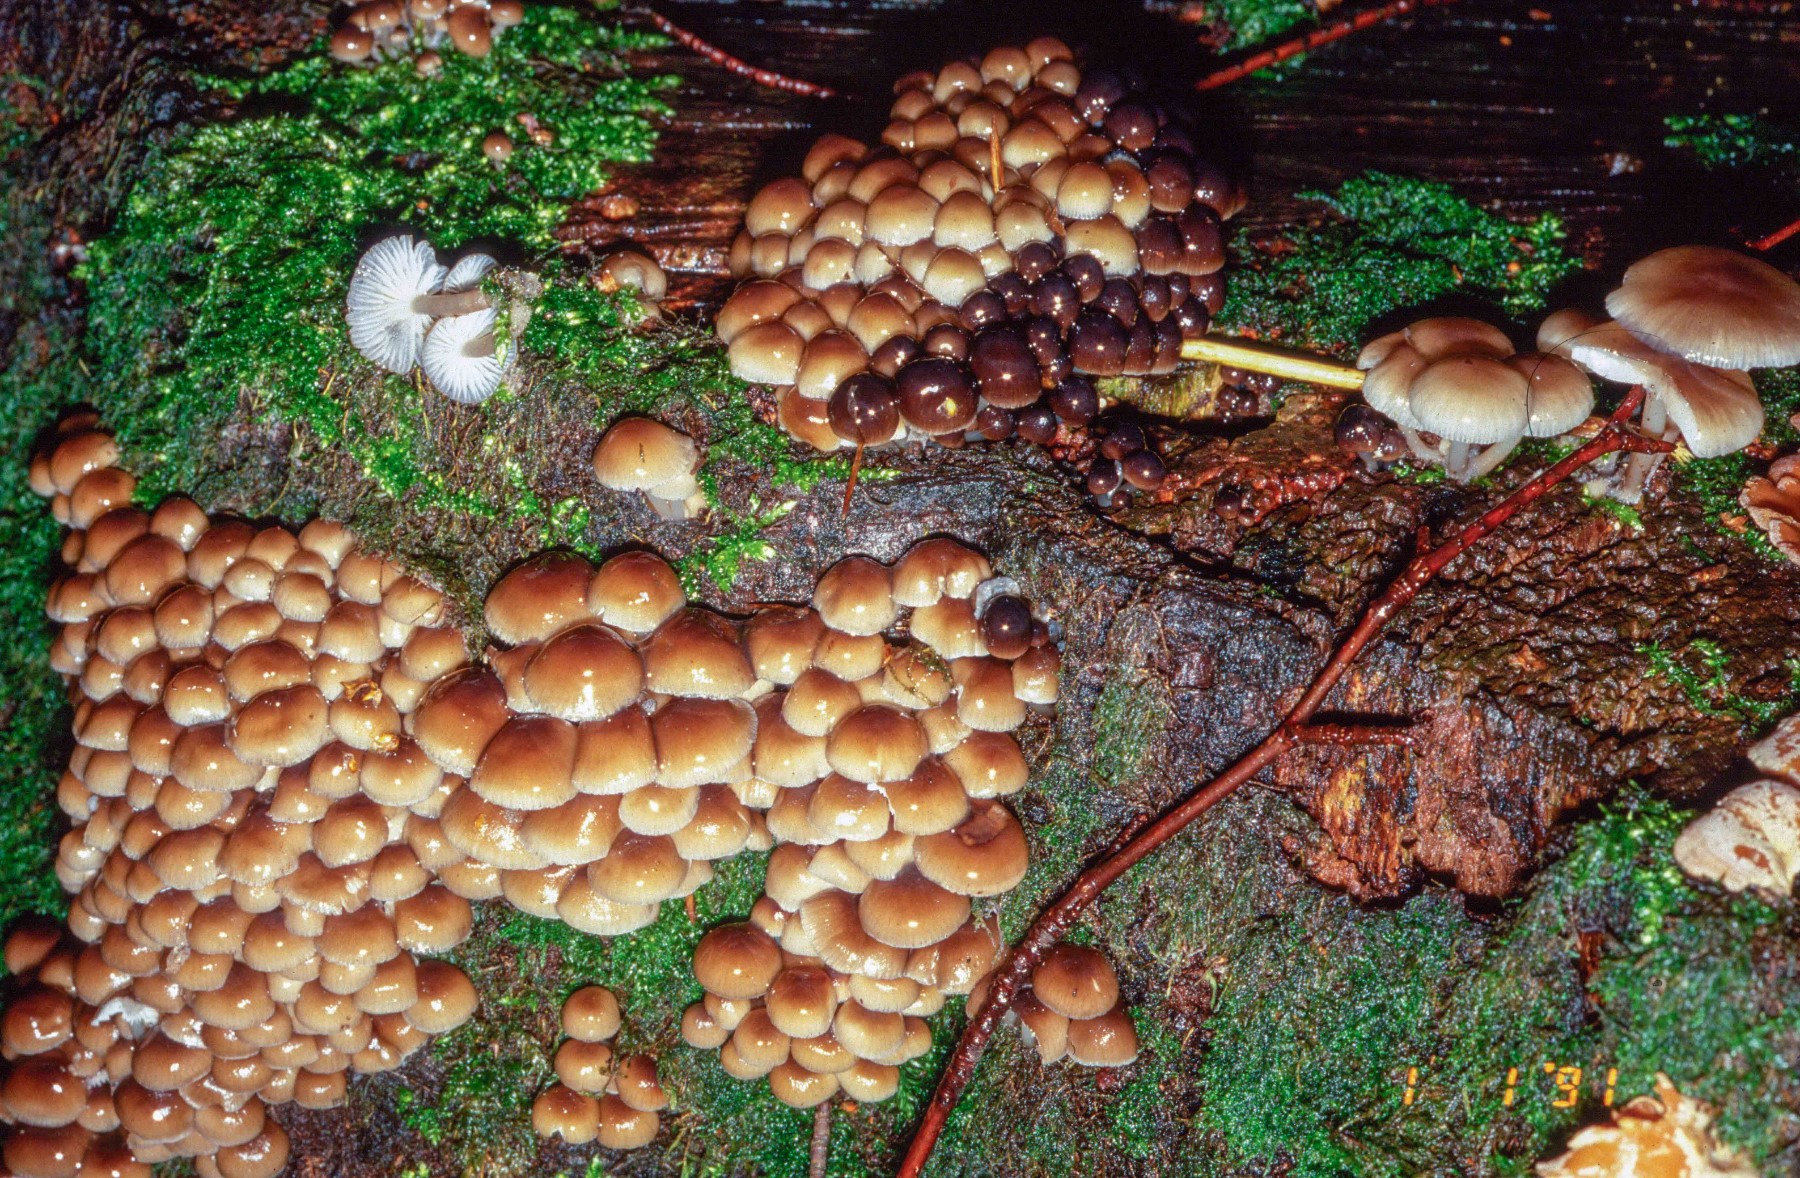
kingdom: Fungi
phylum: Basidiomycota
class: Agaricomycetes
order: Agaricales
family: Mycenaceae
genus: Mycena
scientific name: Mycena tintinnabulum
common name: vinter-huesvamp
